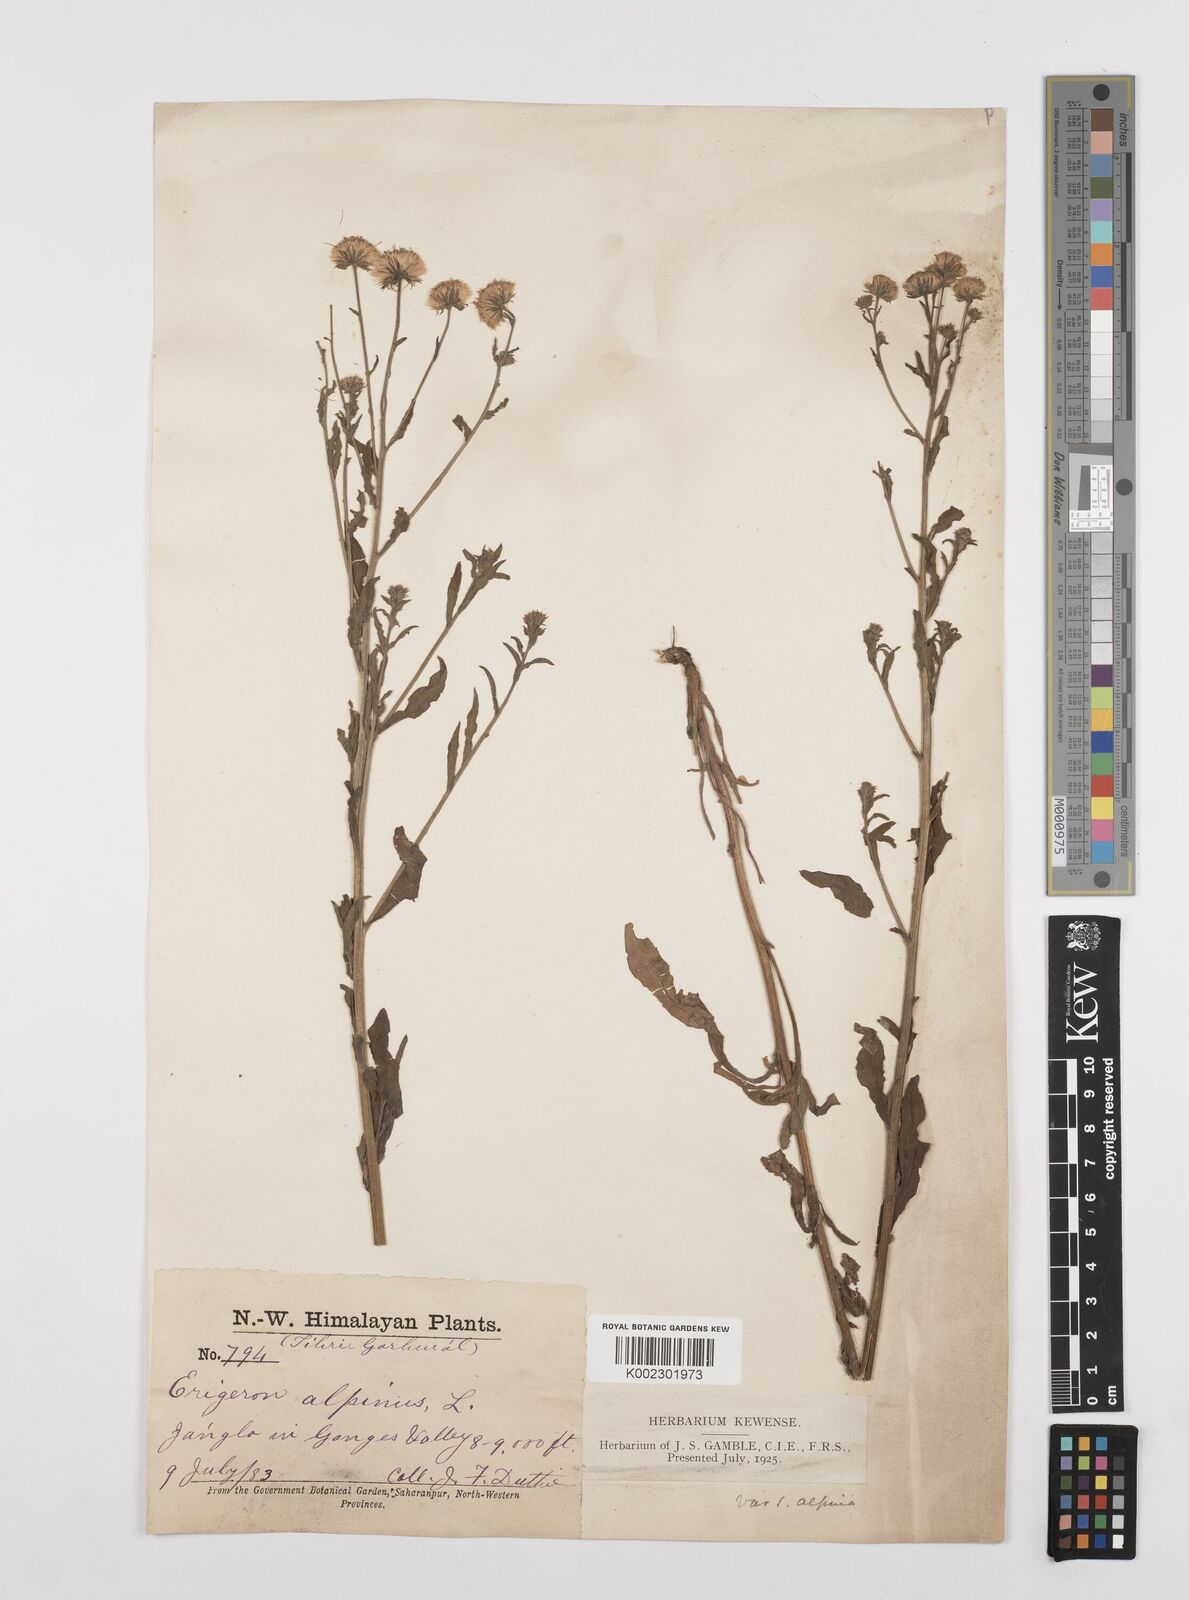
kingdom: Plantae
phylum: Tracheophyta
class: Magnoliopsida
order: Asterales
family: Asteraceae
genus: Erigeron
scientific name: Erigeron alpinus
